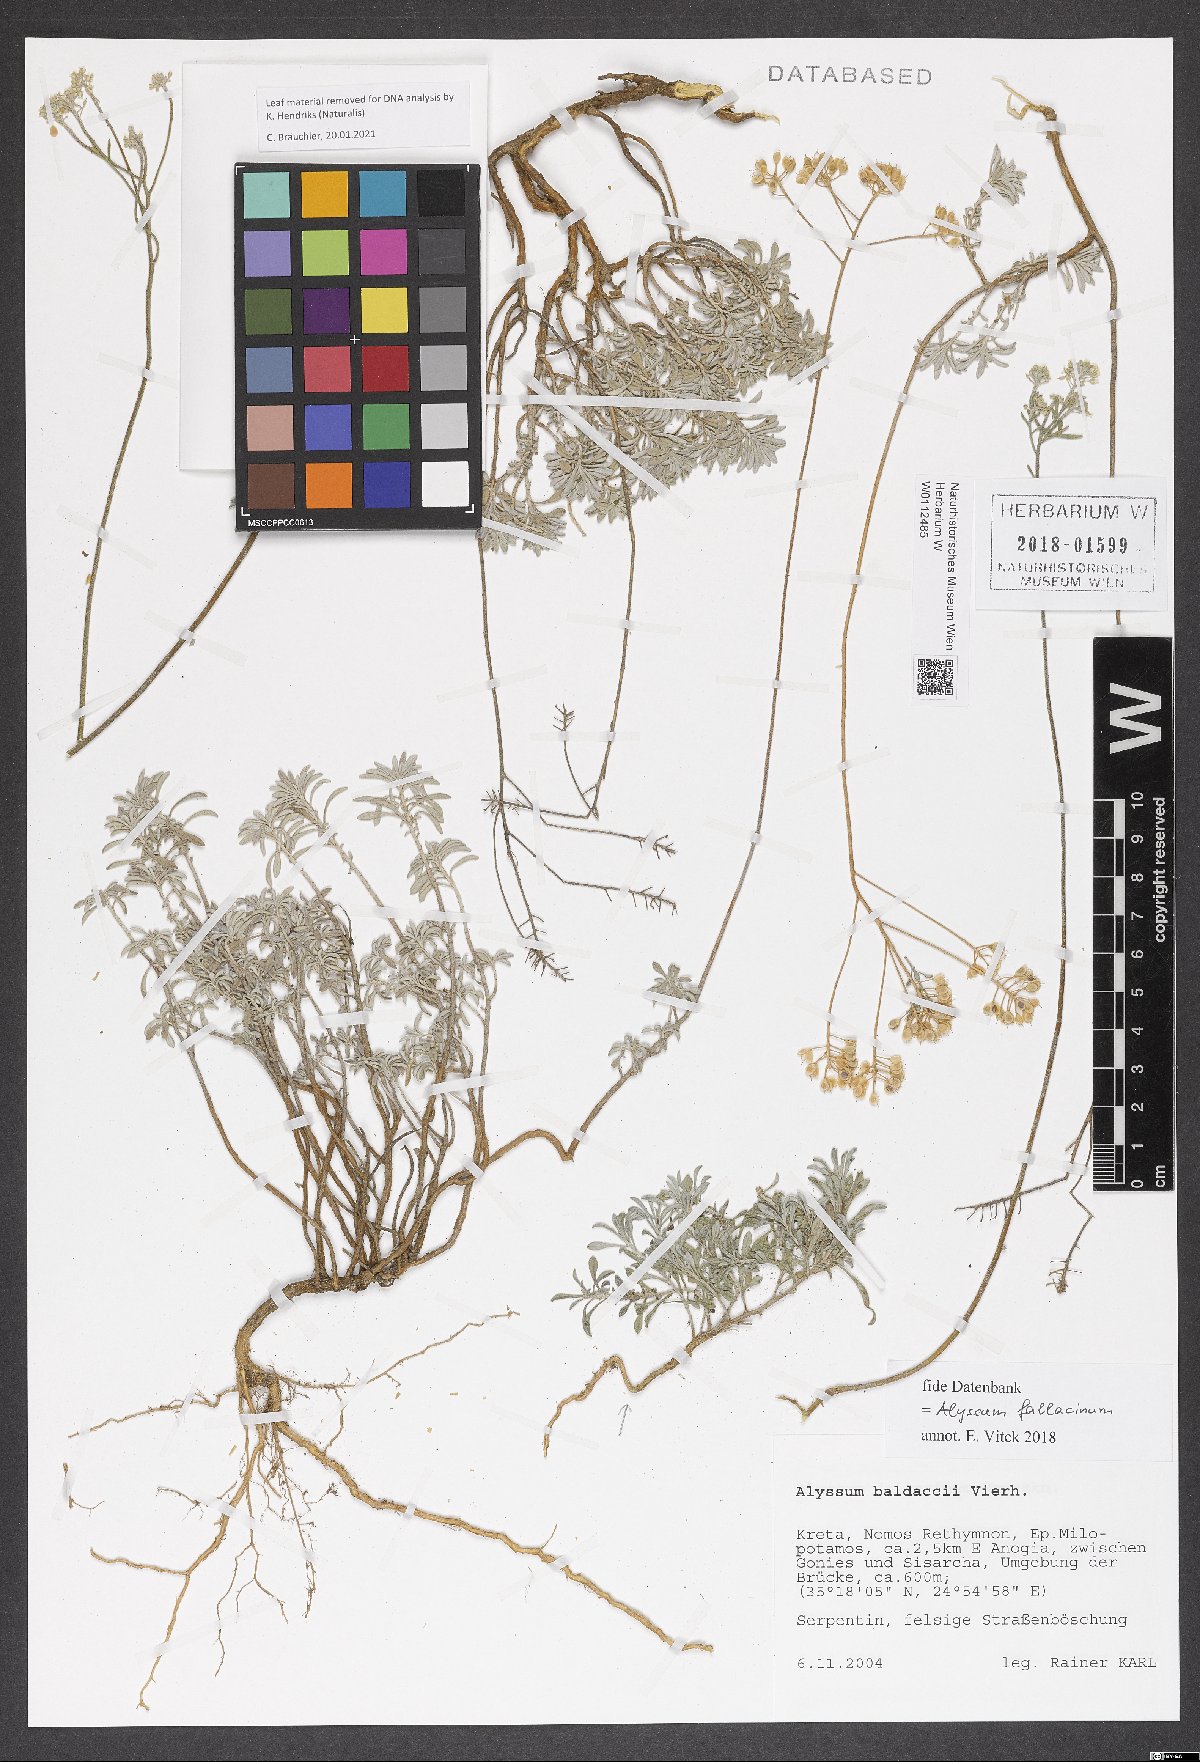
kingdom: Plantae
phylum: Tracheophyta
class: Magnoliopsida
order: Brassicales
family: Brassicaceae
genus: Odontarrhena
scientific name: Odontarrhena fallacina
